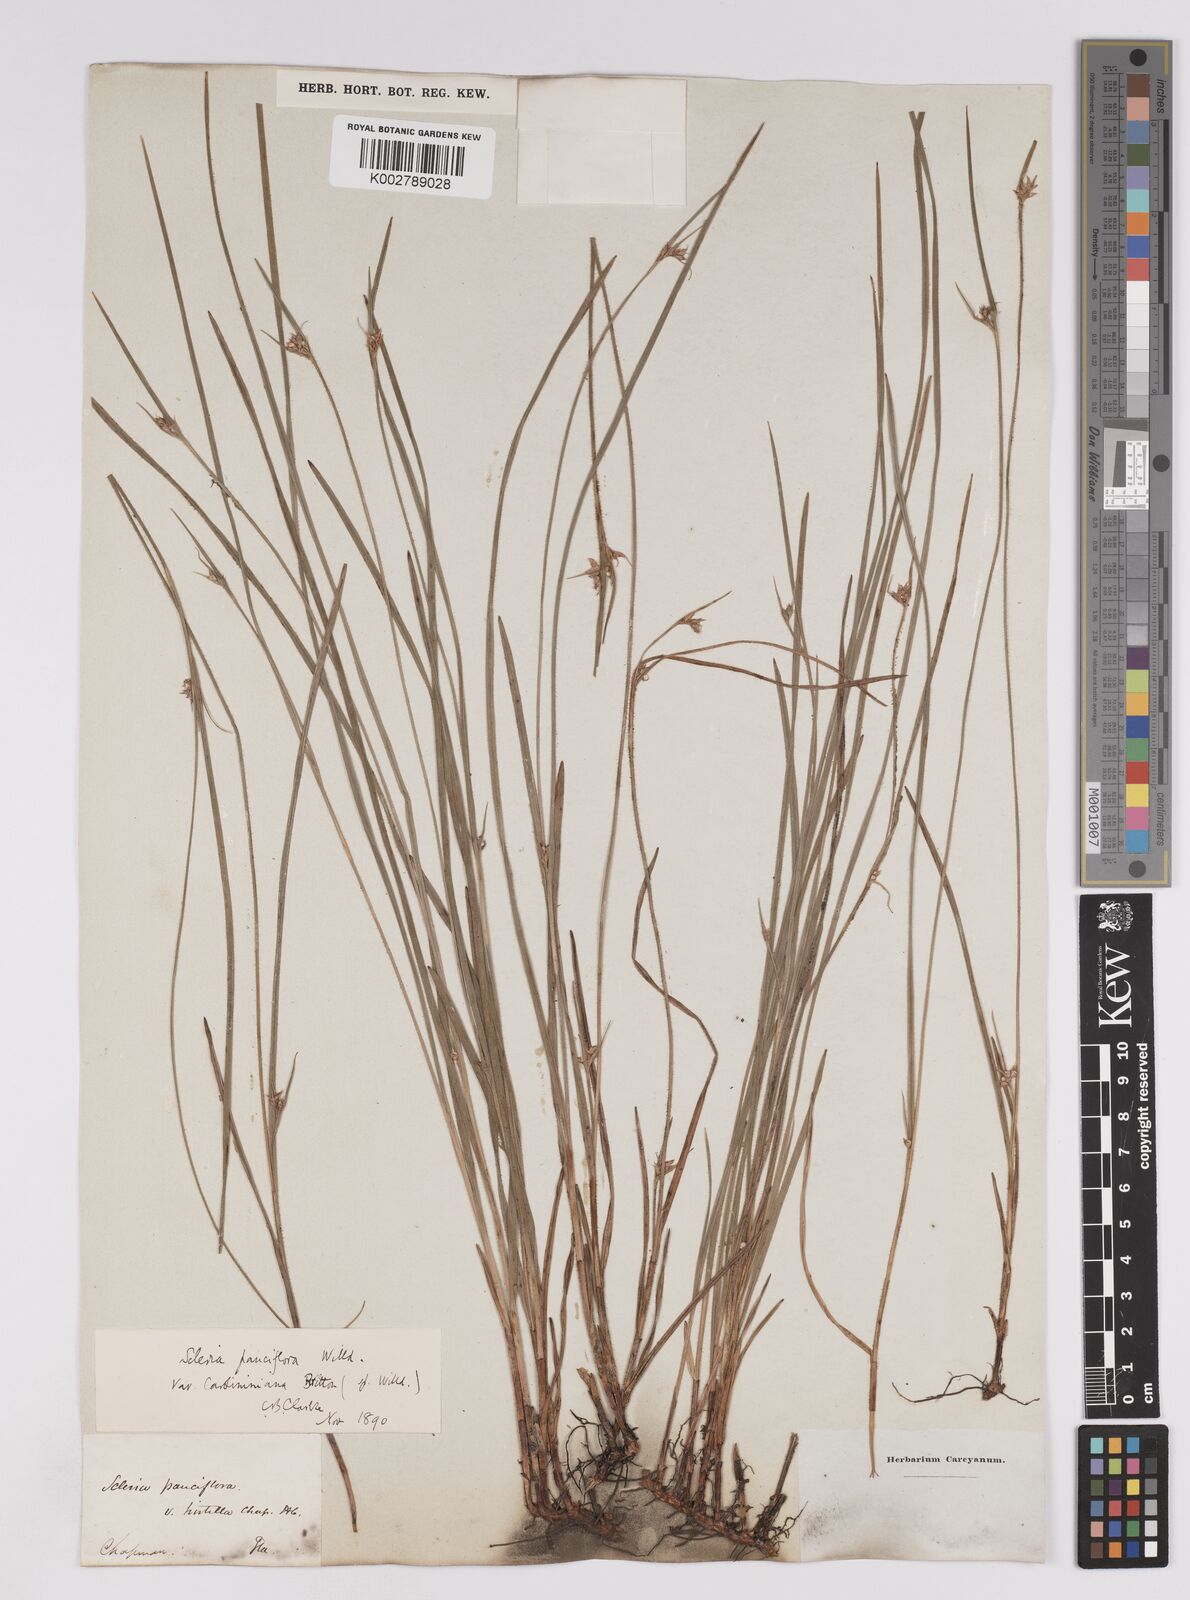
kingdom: Plantae
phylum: Tracheophyta
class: Liliopsida
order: Poales
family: Cyperaceae
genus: Scleria
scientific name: Scleria pauciflora
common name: Few-flowered nutrush
